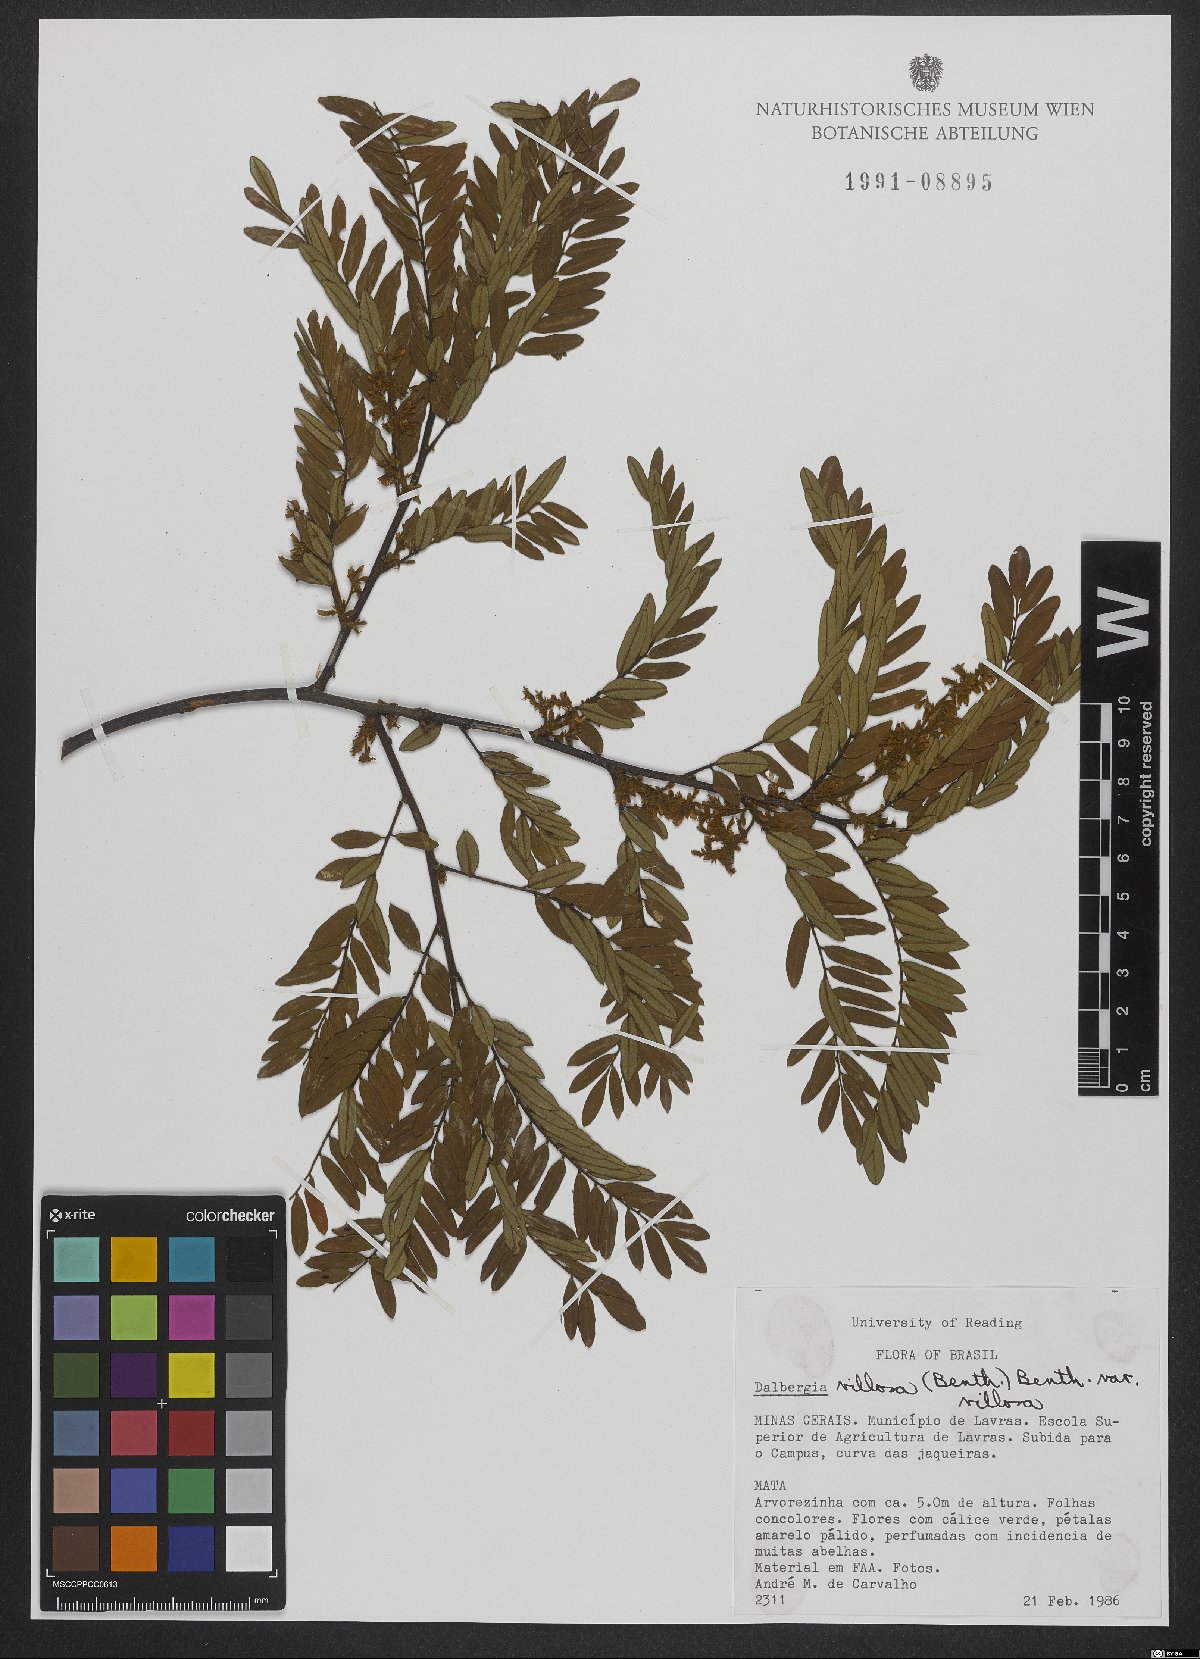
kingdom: Plantae
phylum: Tracheophyta
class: Magnoliopsida
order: Fabales
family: Fabaceae
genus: Dalbergia
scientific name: Dalbergia villosa
